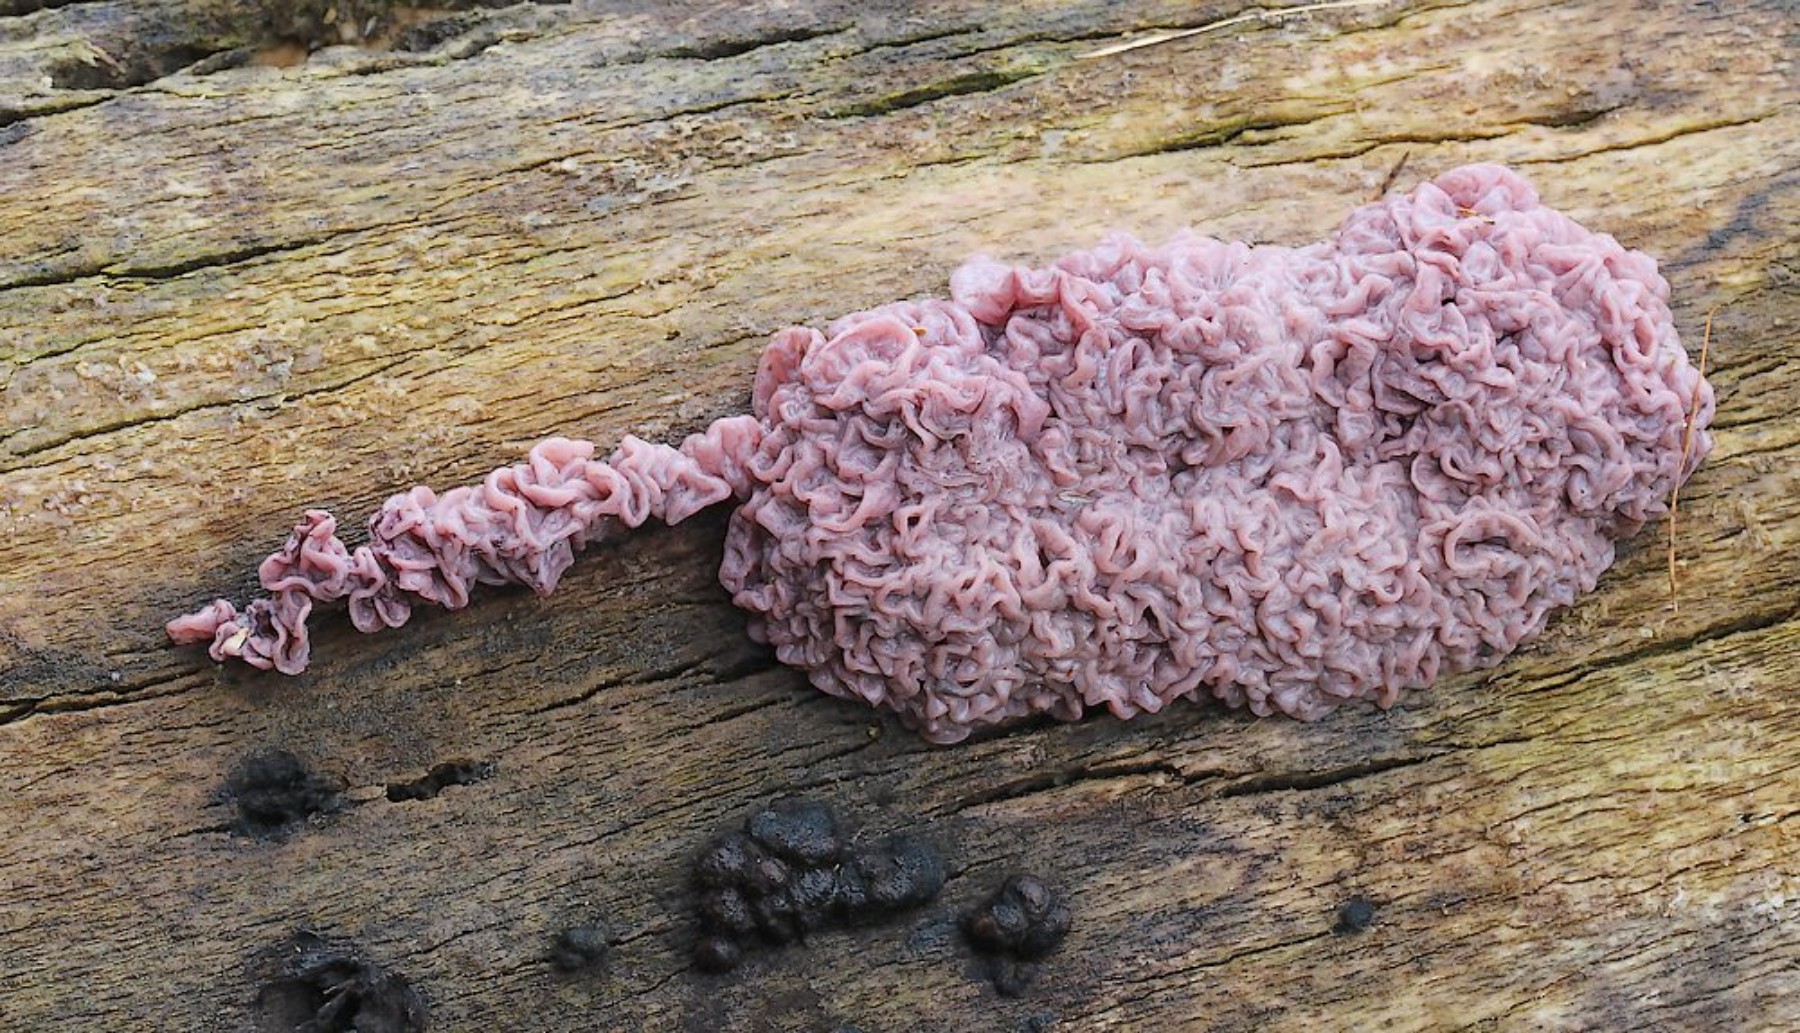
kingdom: Fungi
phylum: Ascomycota
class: Leotiomycetes
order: Helotiales
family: Gelatinodiscaceae
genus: Ascocoryne
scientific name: Ascocoryne sarcoides
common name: rødlilla sejskive
